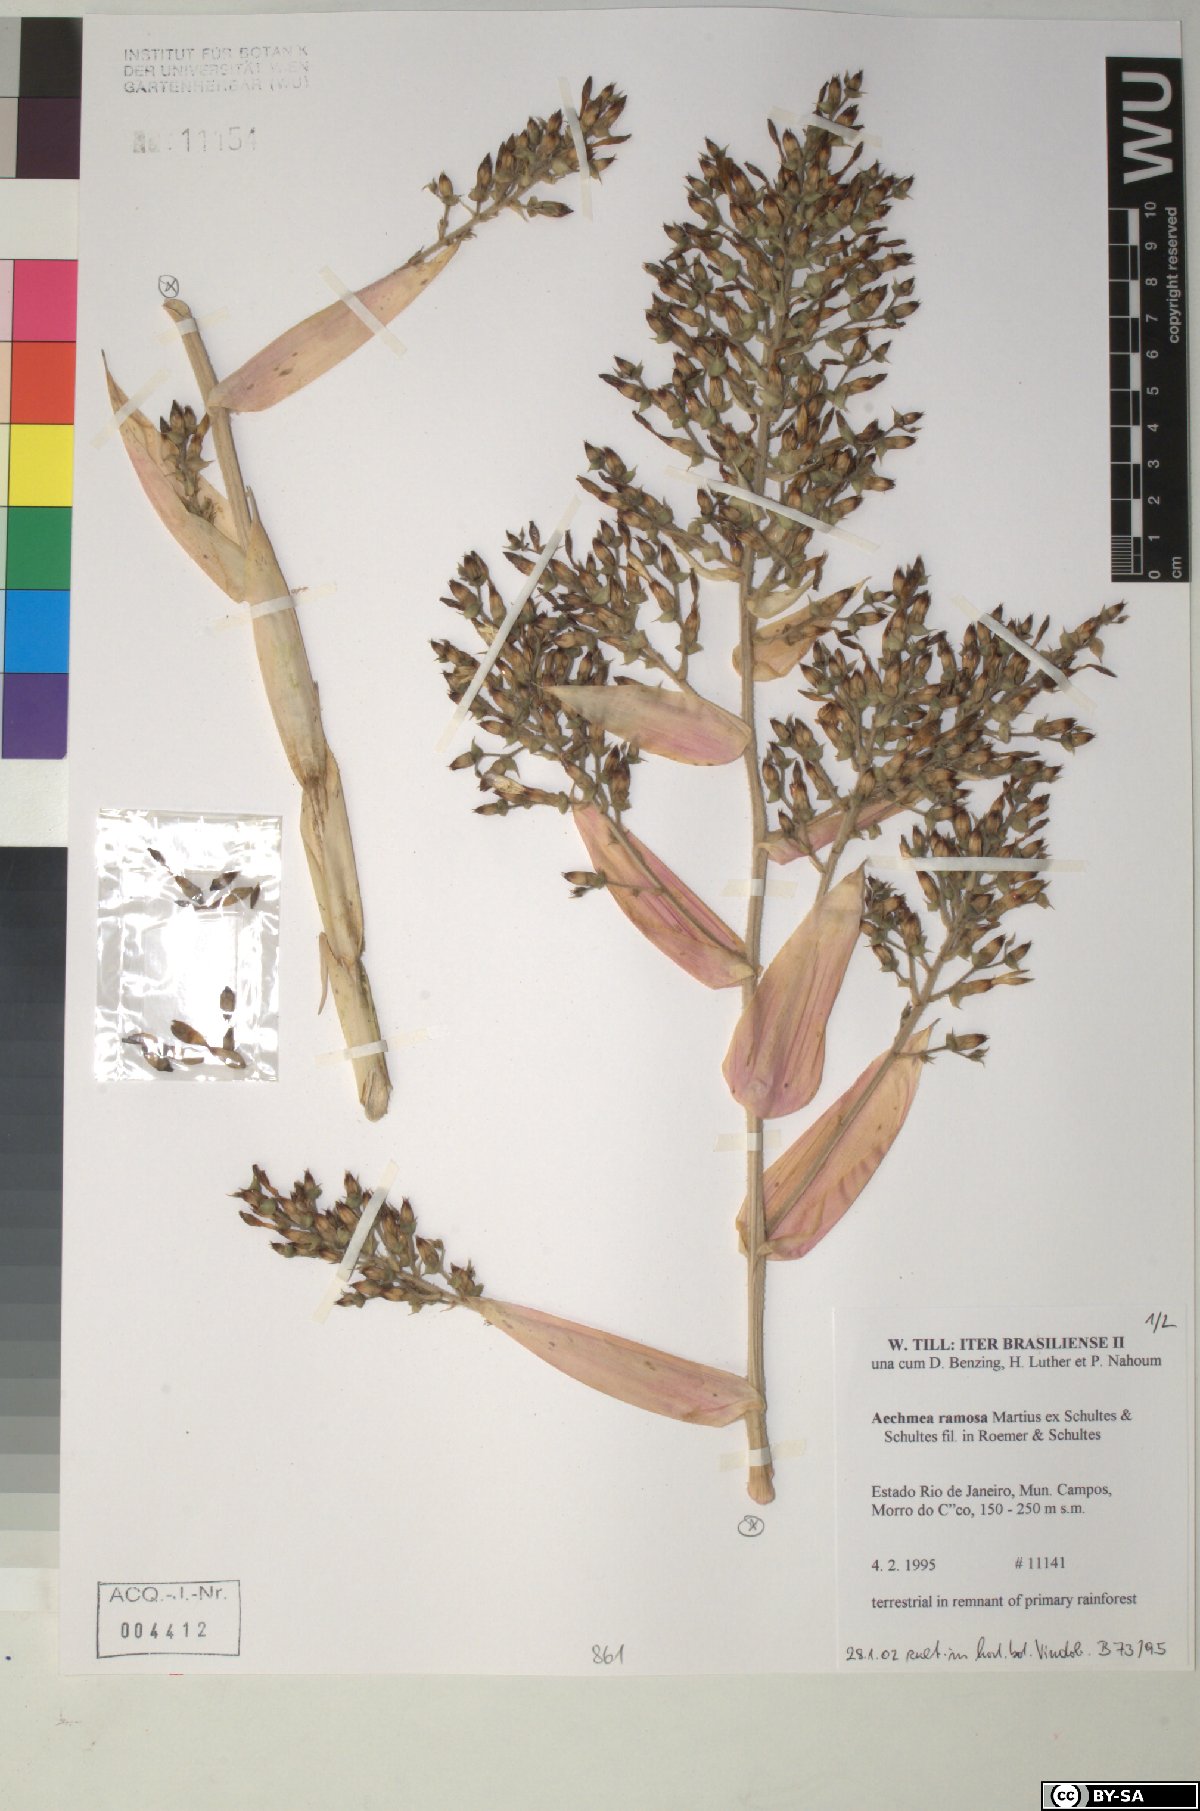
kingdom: Plantae
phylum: Tracheophyta
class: Liliopsida
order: Poales
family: Bromeliaceae
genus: Aechmea
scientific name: Aechmea ramosa
